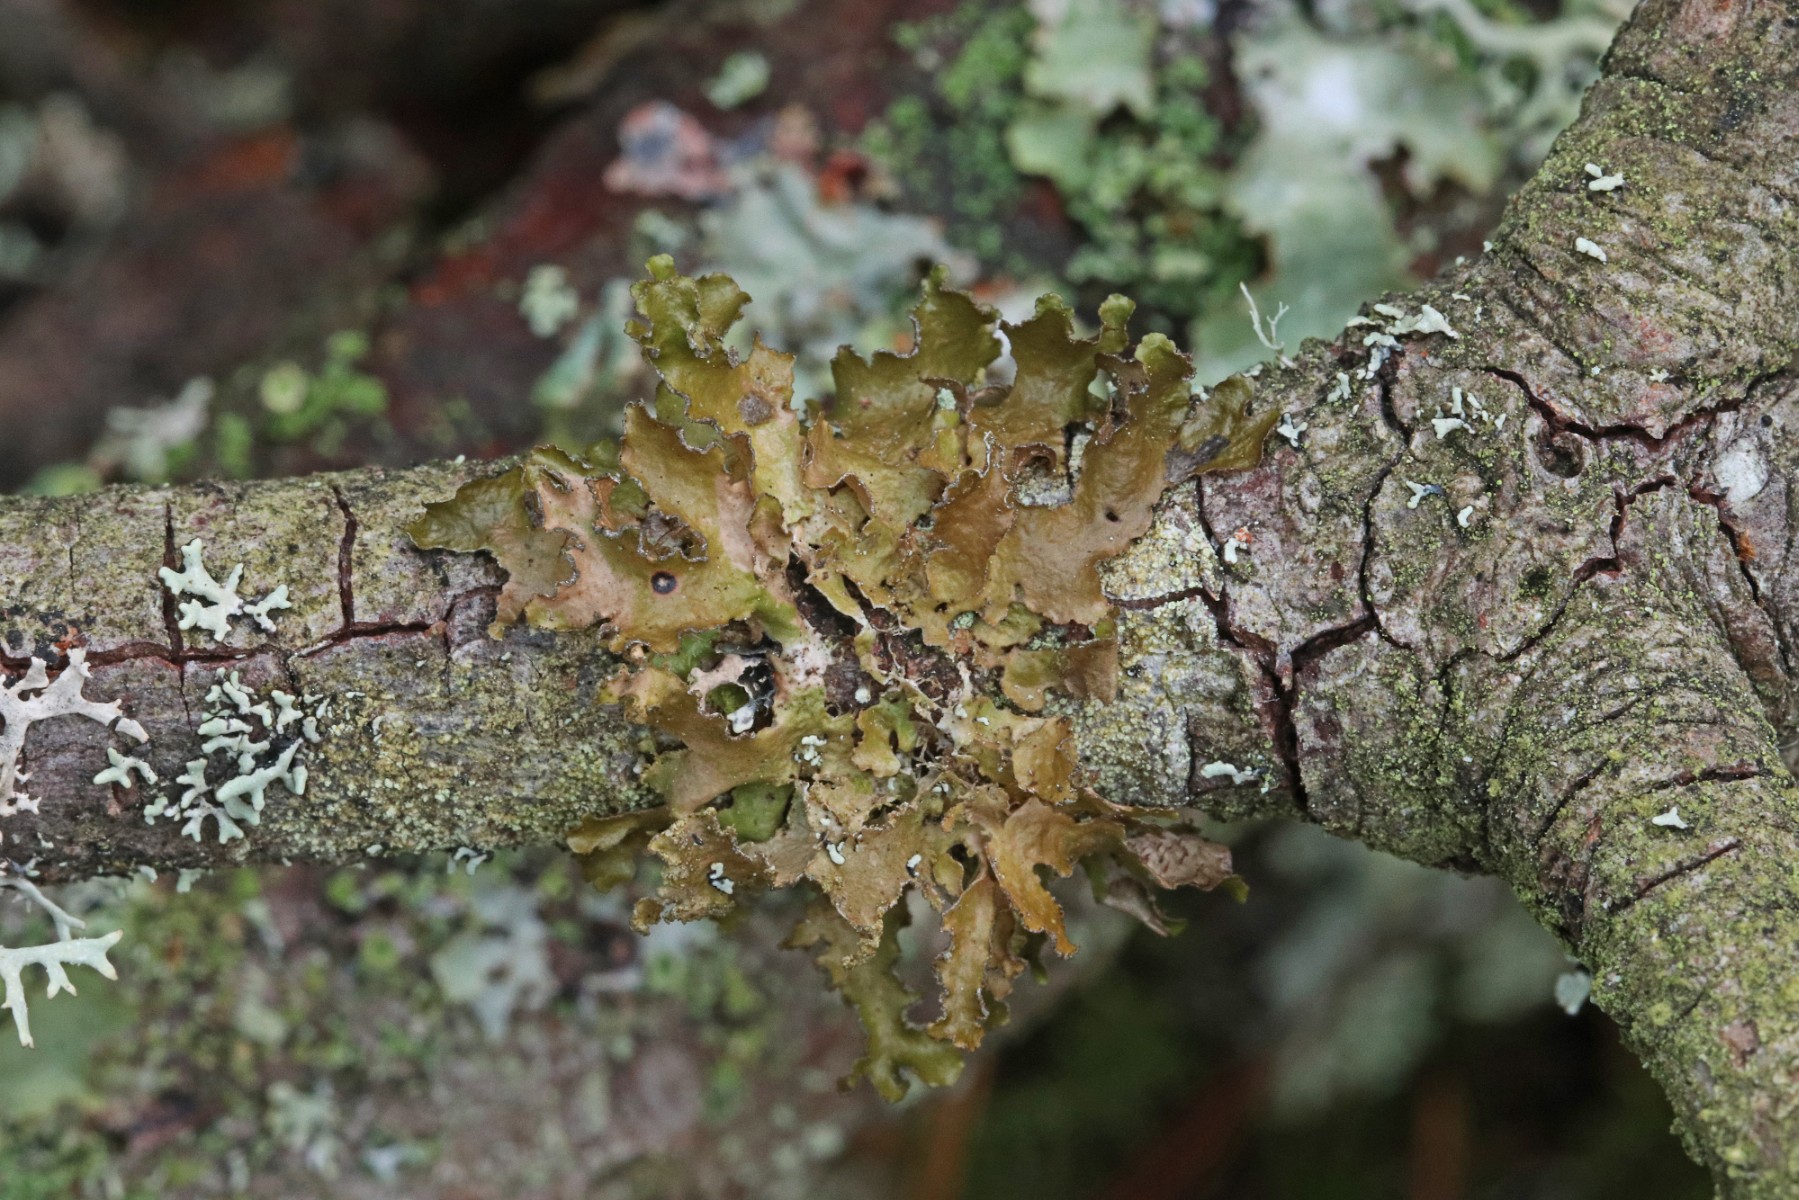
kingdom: Fungi
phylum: Ascomycota
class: Lecanoromycetes
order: Lecanorales
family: Parmeliaceae
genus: Nephromopsis
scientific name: Nephromopsis chlorophylla
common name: olivenbrun kruslav
